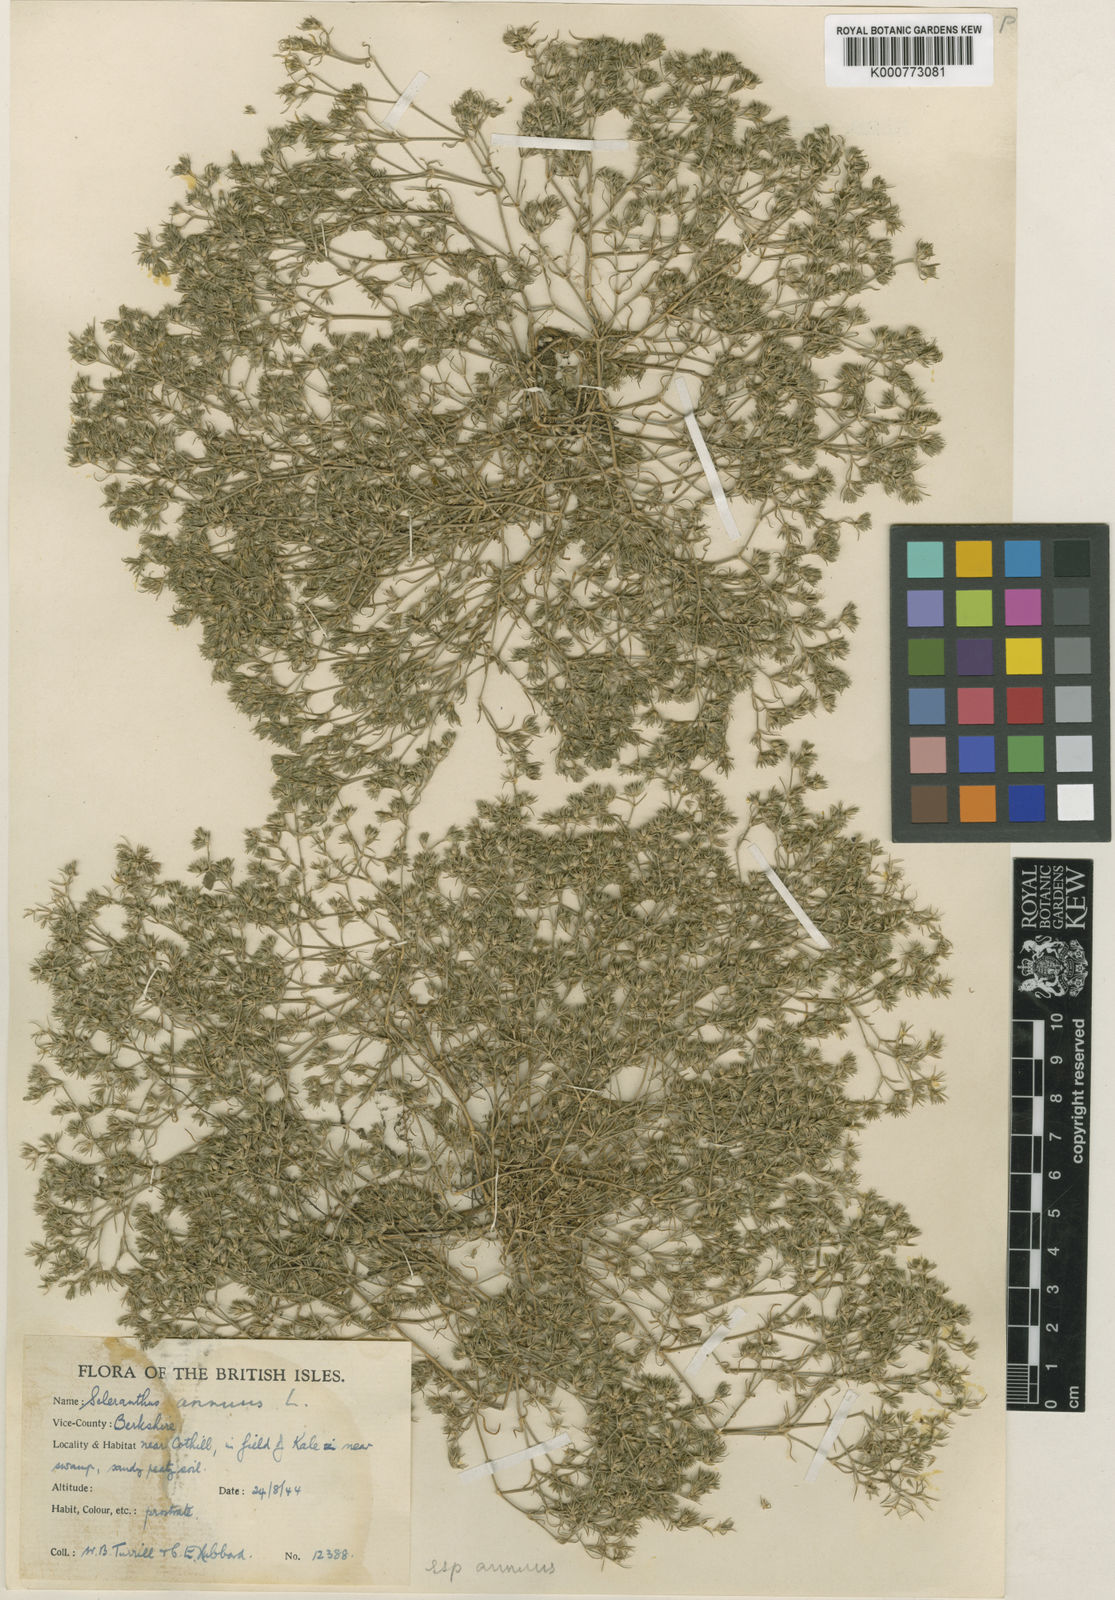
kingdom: Plantae
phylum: Tracheophyta
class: Magnoliopsida
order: Caryophyllales
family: Caryophyllaceae
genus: Scleranthus
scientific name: Scleranthus annuus
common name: Annual knawel
